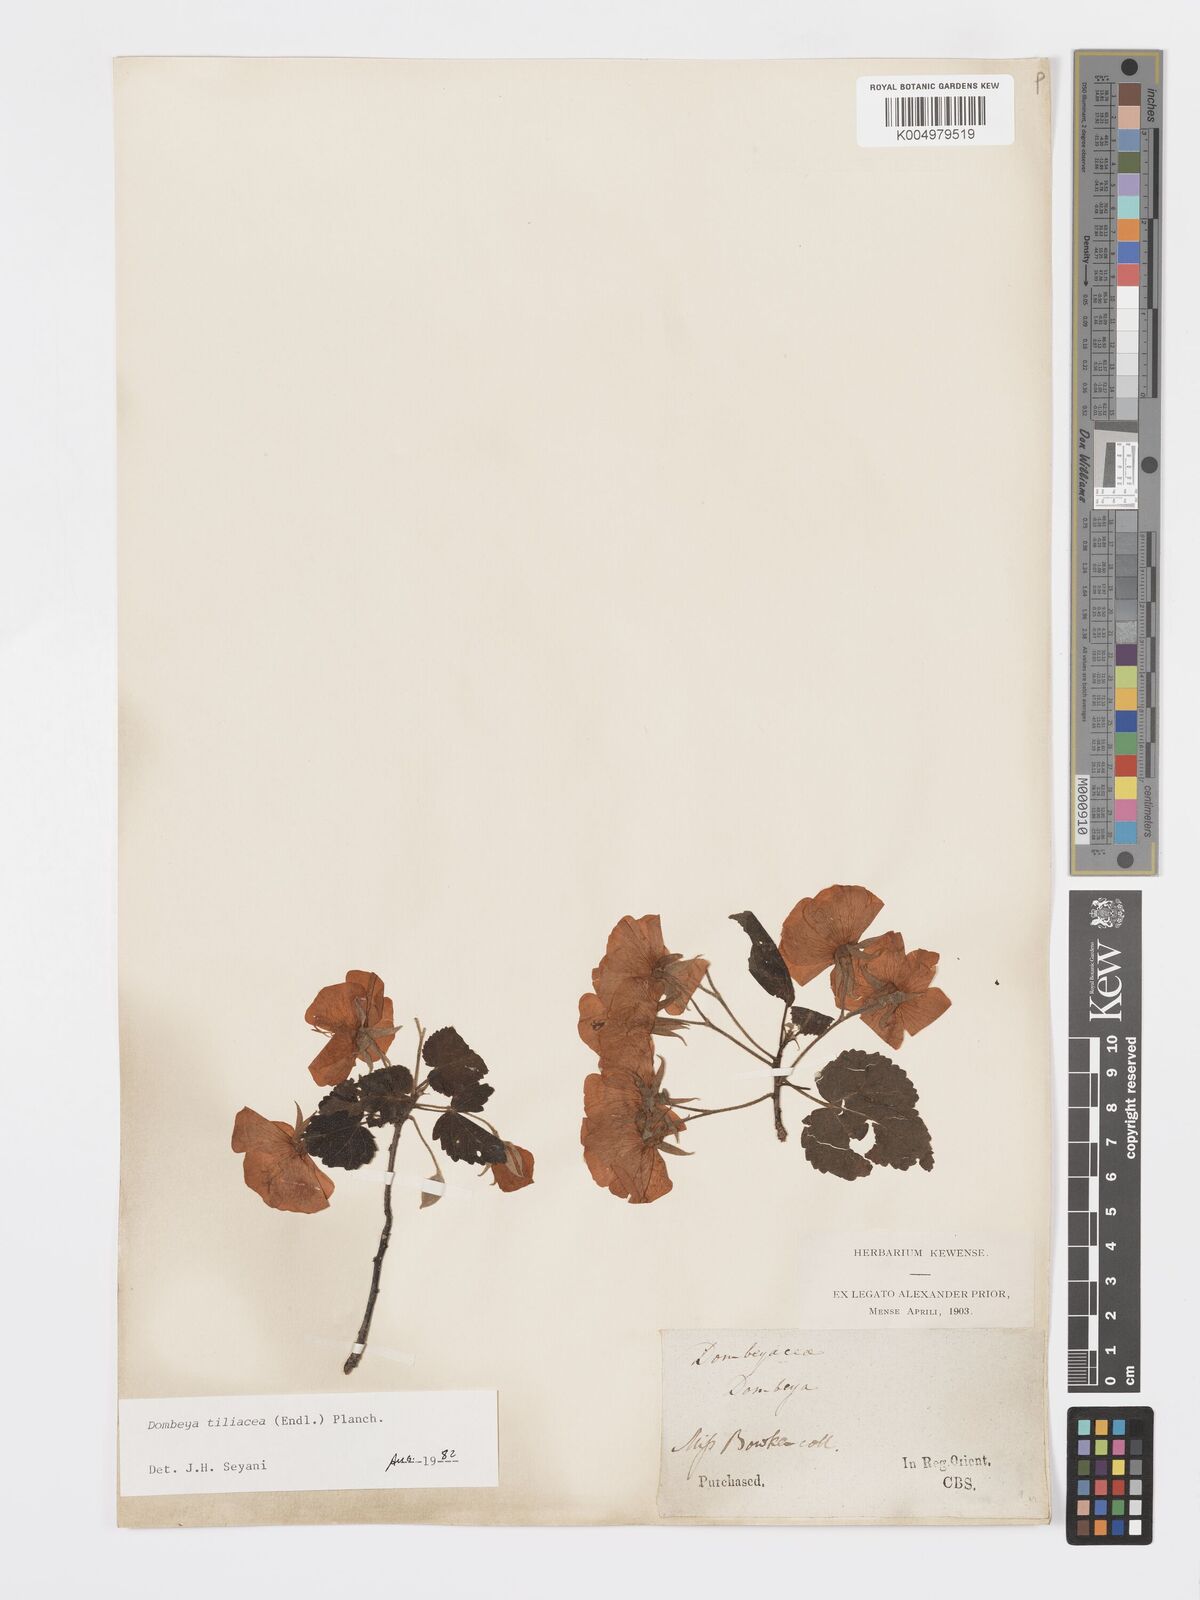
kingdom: Plantae
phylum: Tracheophyta
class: Magnoliopsida
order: Malvales
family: Malvaceae
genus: Dombeya
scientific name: Dombeya tiliacea
